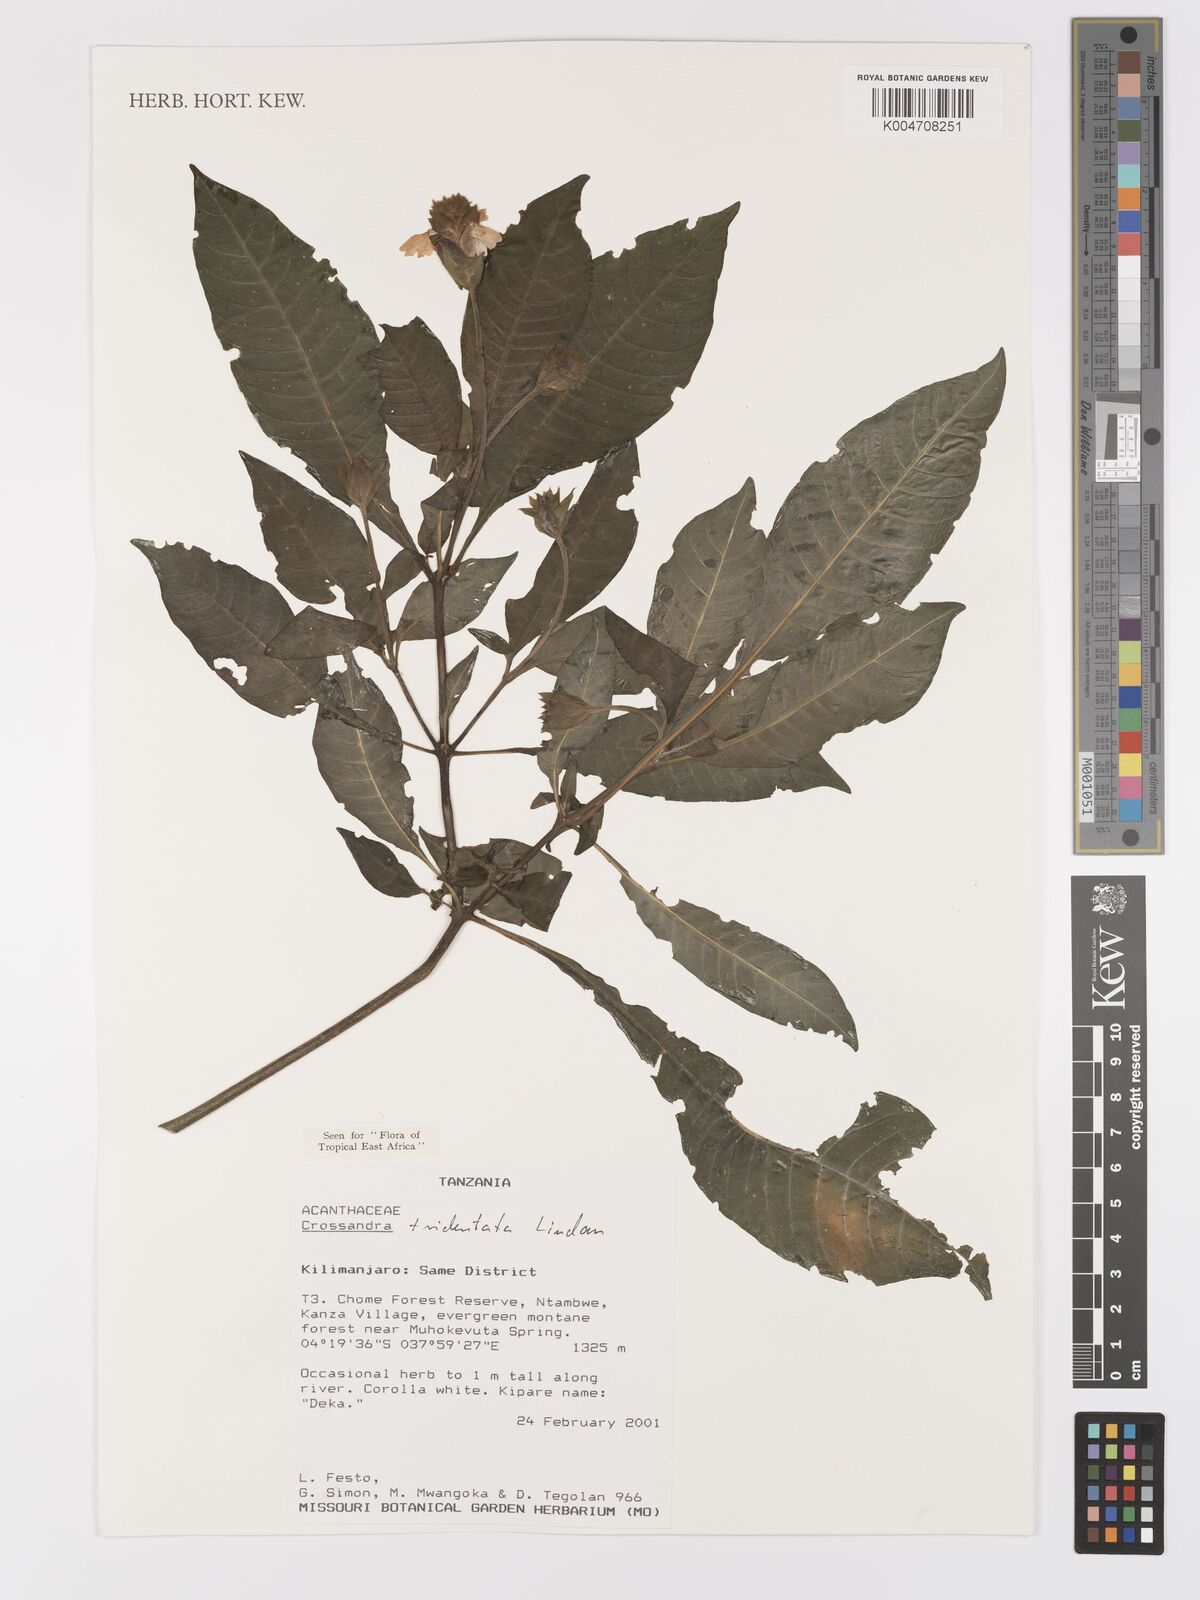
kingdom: Plantae
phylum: Tracheophyta
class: Magnoliopsida
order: Lamiales
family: Acanthaceae
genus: Crossandra
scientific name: Crossandra tridentata
